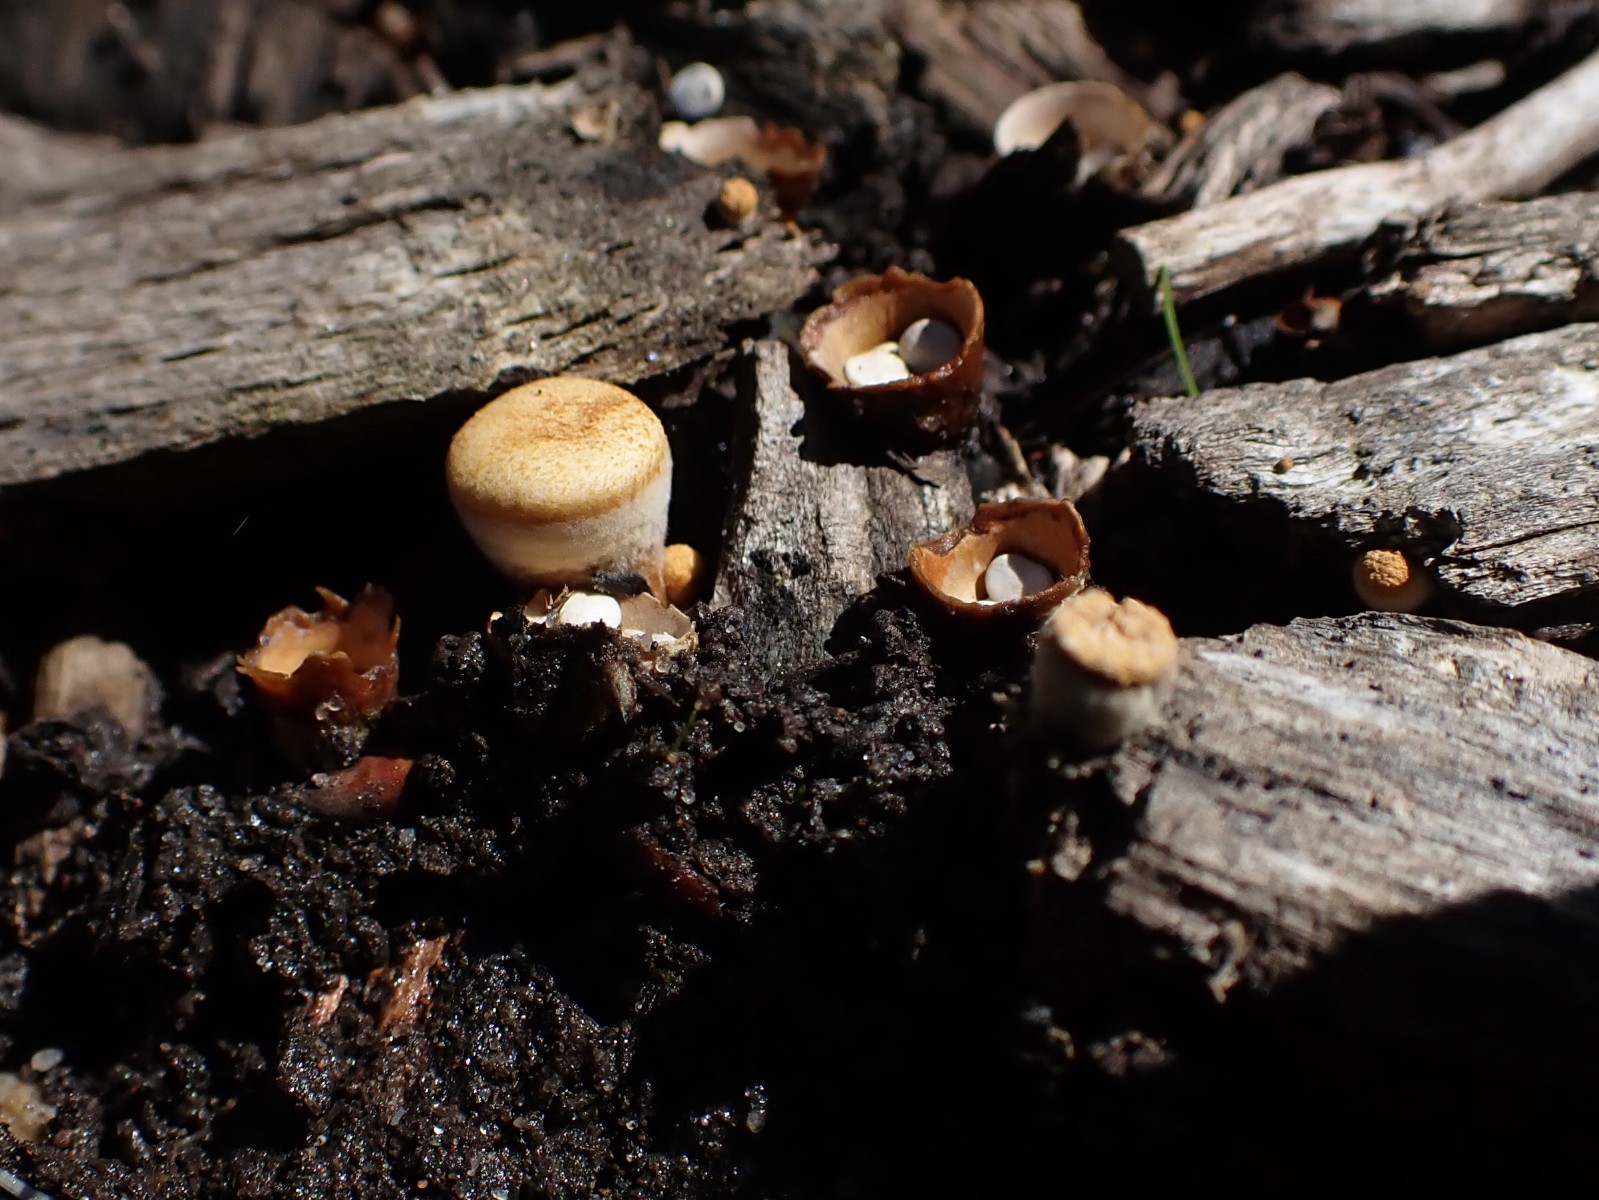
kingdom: Fungi
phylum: Basidiomycota
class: Agaricomycetes
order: Agaricales
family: Nidulariaceae
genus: Crucibulum
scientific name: Crucibulum crucibuliforme
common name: krukkesvamp
